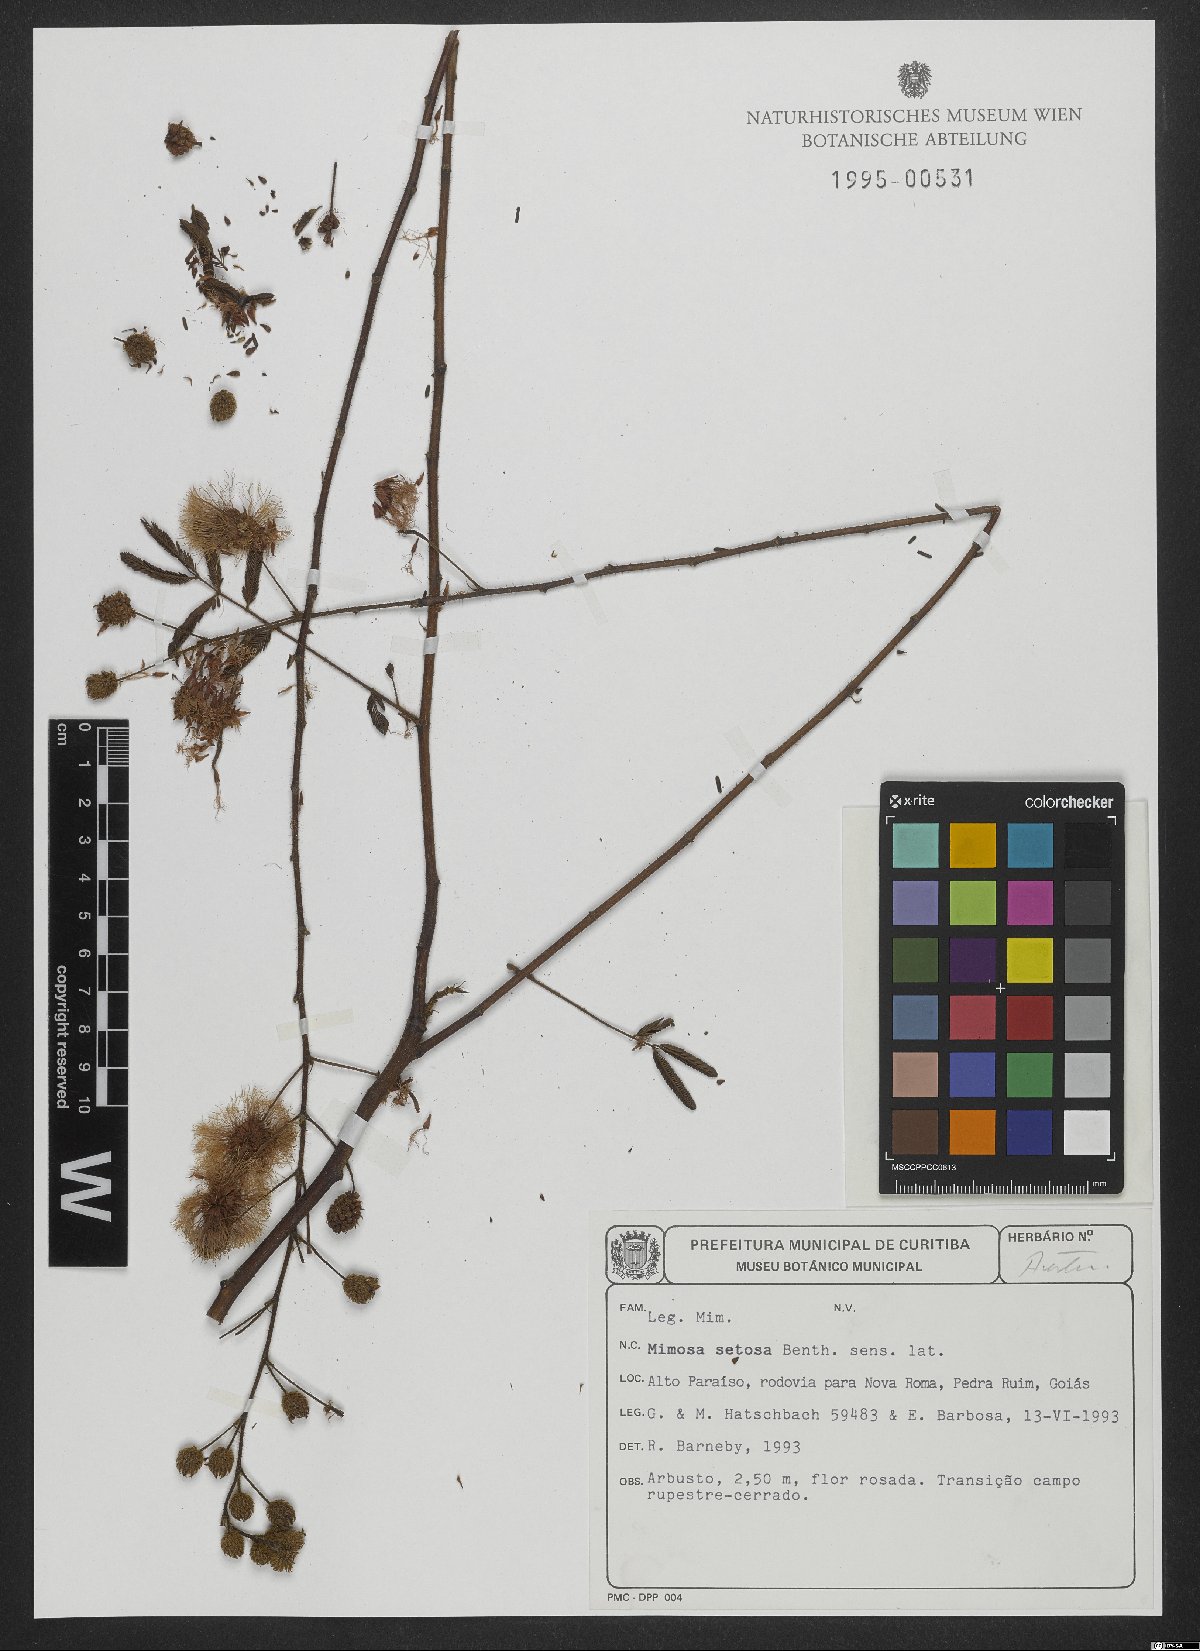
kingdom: Plantae
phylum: Tracheophyta
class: Magnoliopsida
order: Fabales
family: Fabaceae
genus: Mimosa
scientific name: Mimosa setosa
